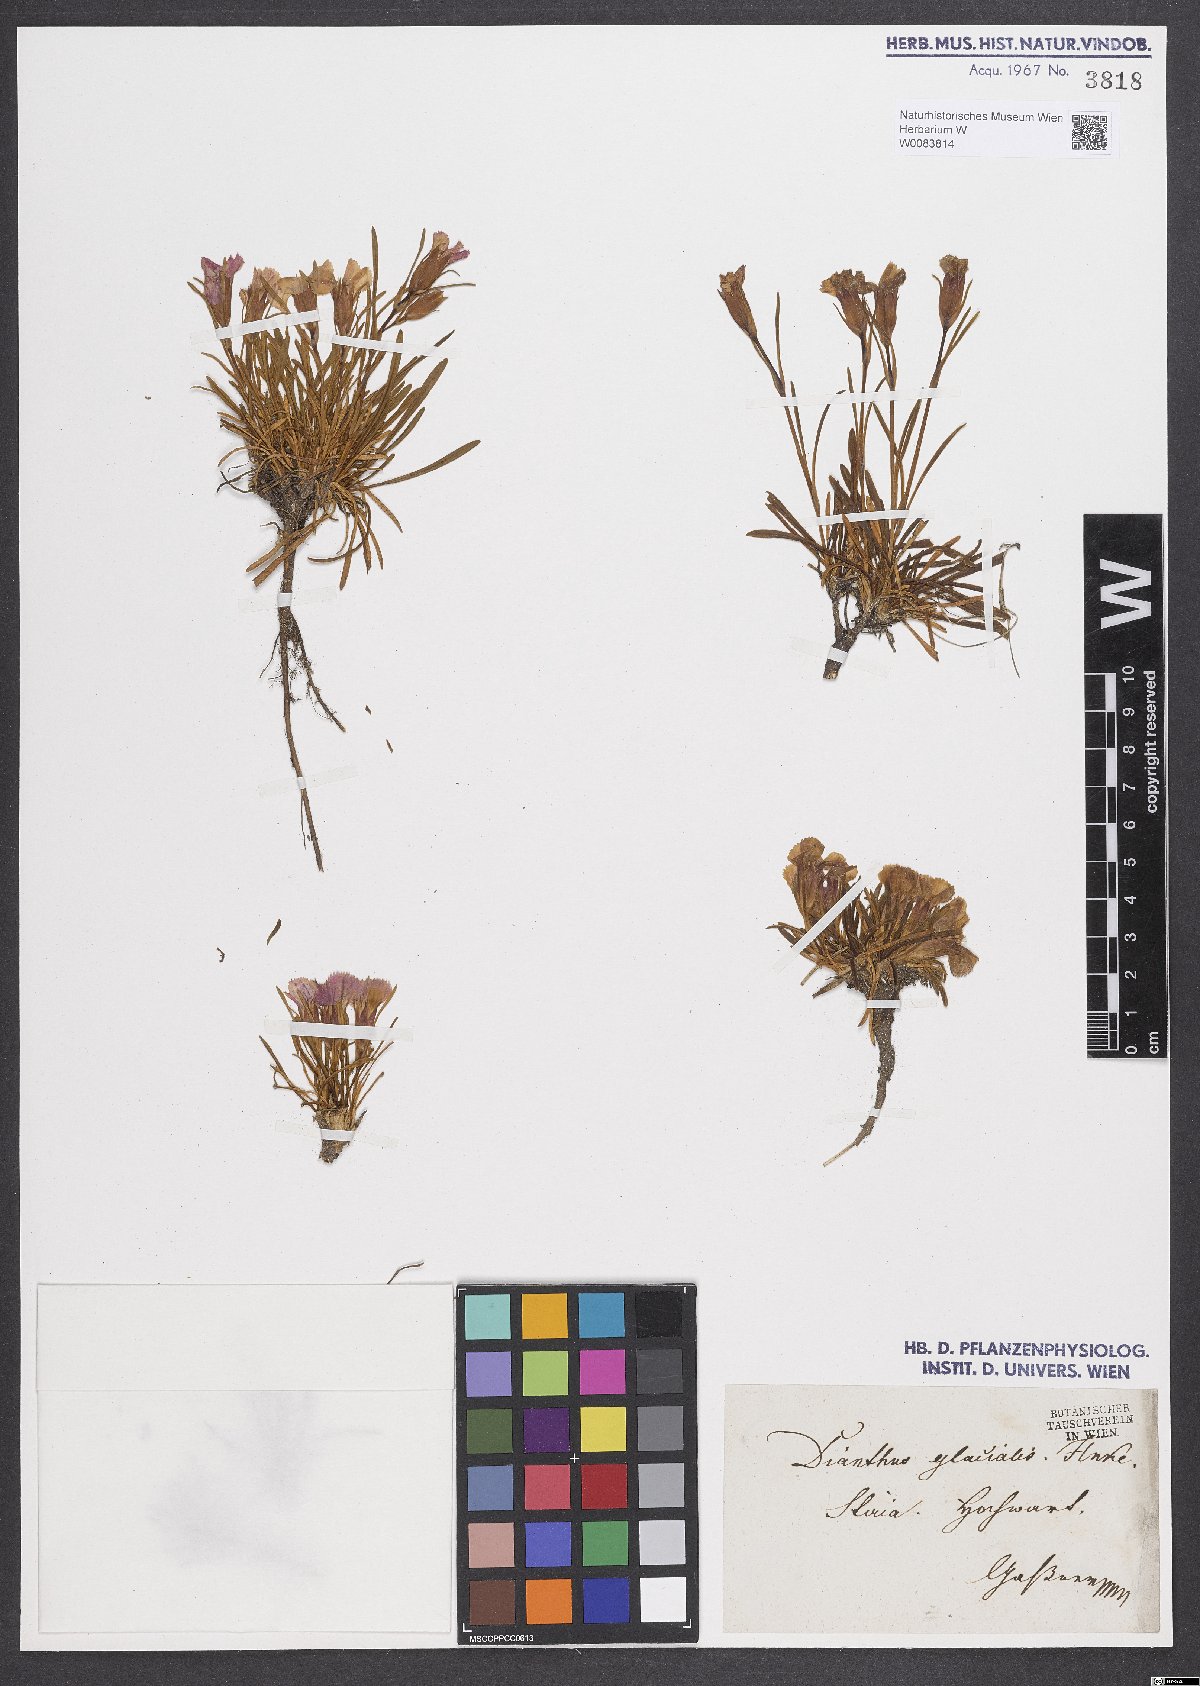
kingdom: Plantae
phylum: Tracheophyta
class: Magnoliopsida
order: Caryophyllales
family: Caryophyllaceae
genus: Dianthus
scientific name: Dianthus glacialis
